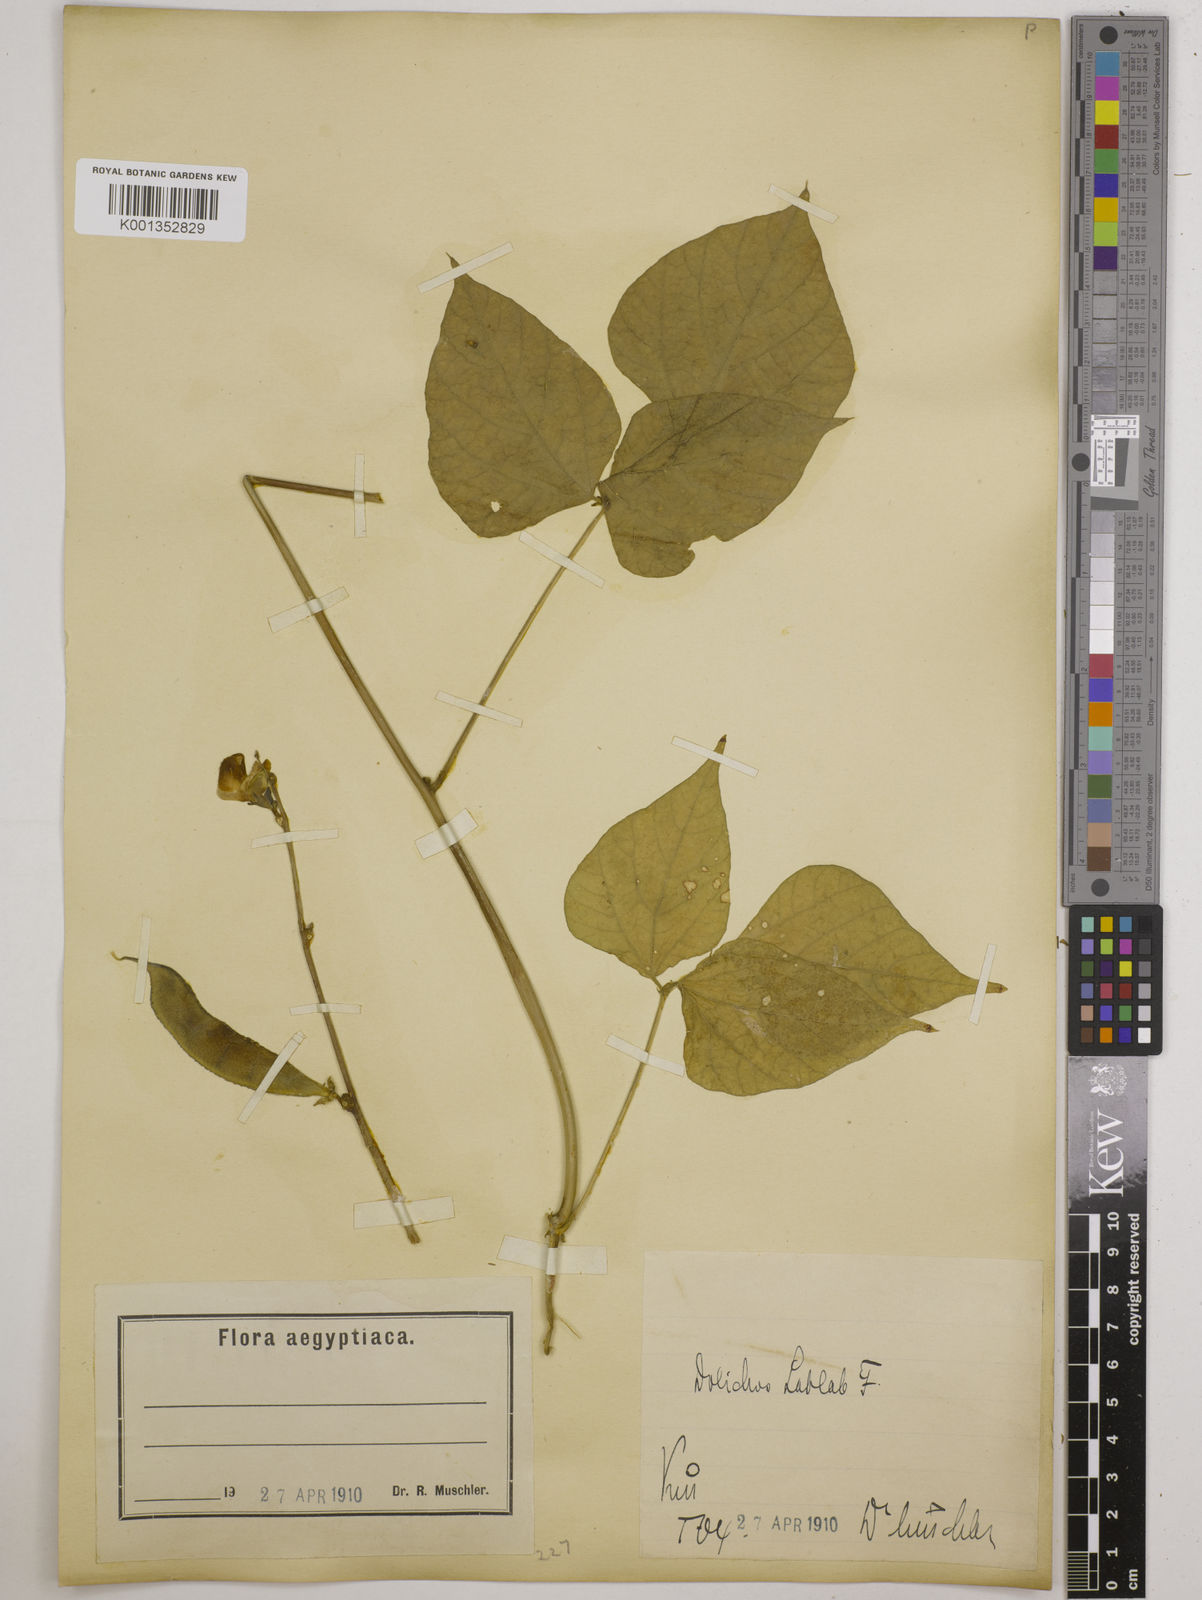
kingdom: Plantae
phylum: Tracheophyta
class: Magnoliopsida
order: Fabales
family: Fabaceae
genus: Lablab
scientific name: Lablab purpureus
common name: Lablab-bean
